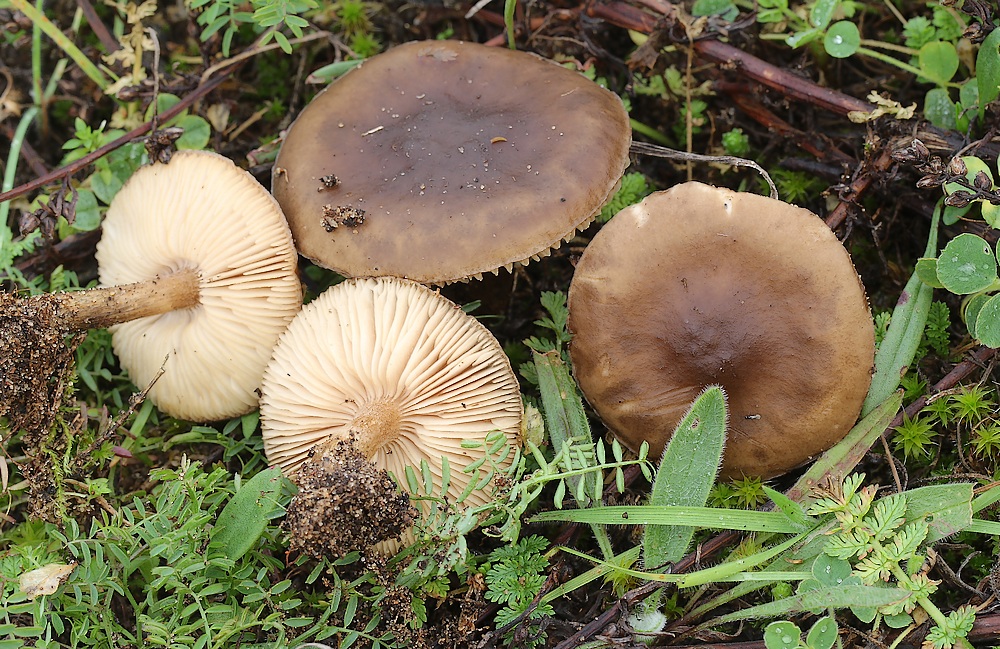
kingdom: Fungi
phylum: Basidiomycota
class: Agaricomycetes
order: Agaricales
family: Tricholomataceae
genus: Melanoleuca
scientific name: Melanoleuca bataillei
